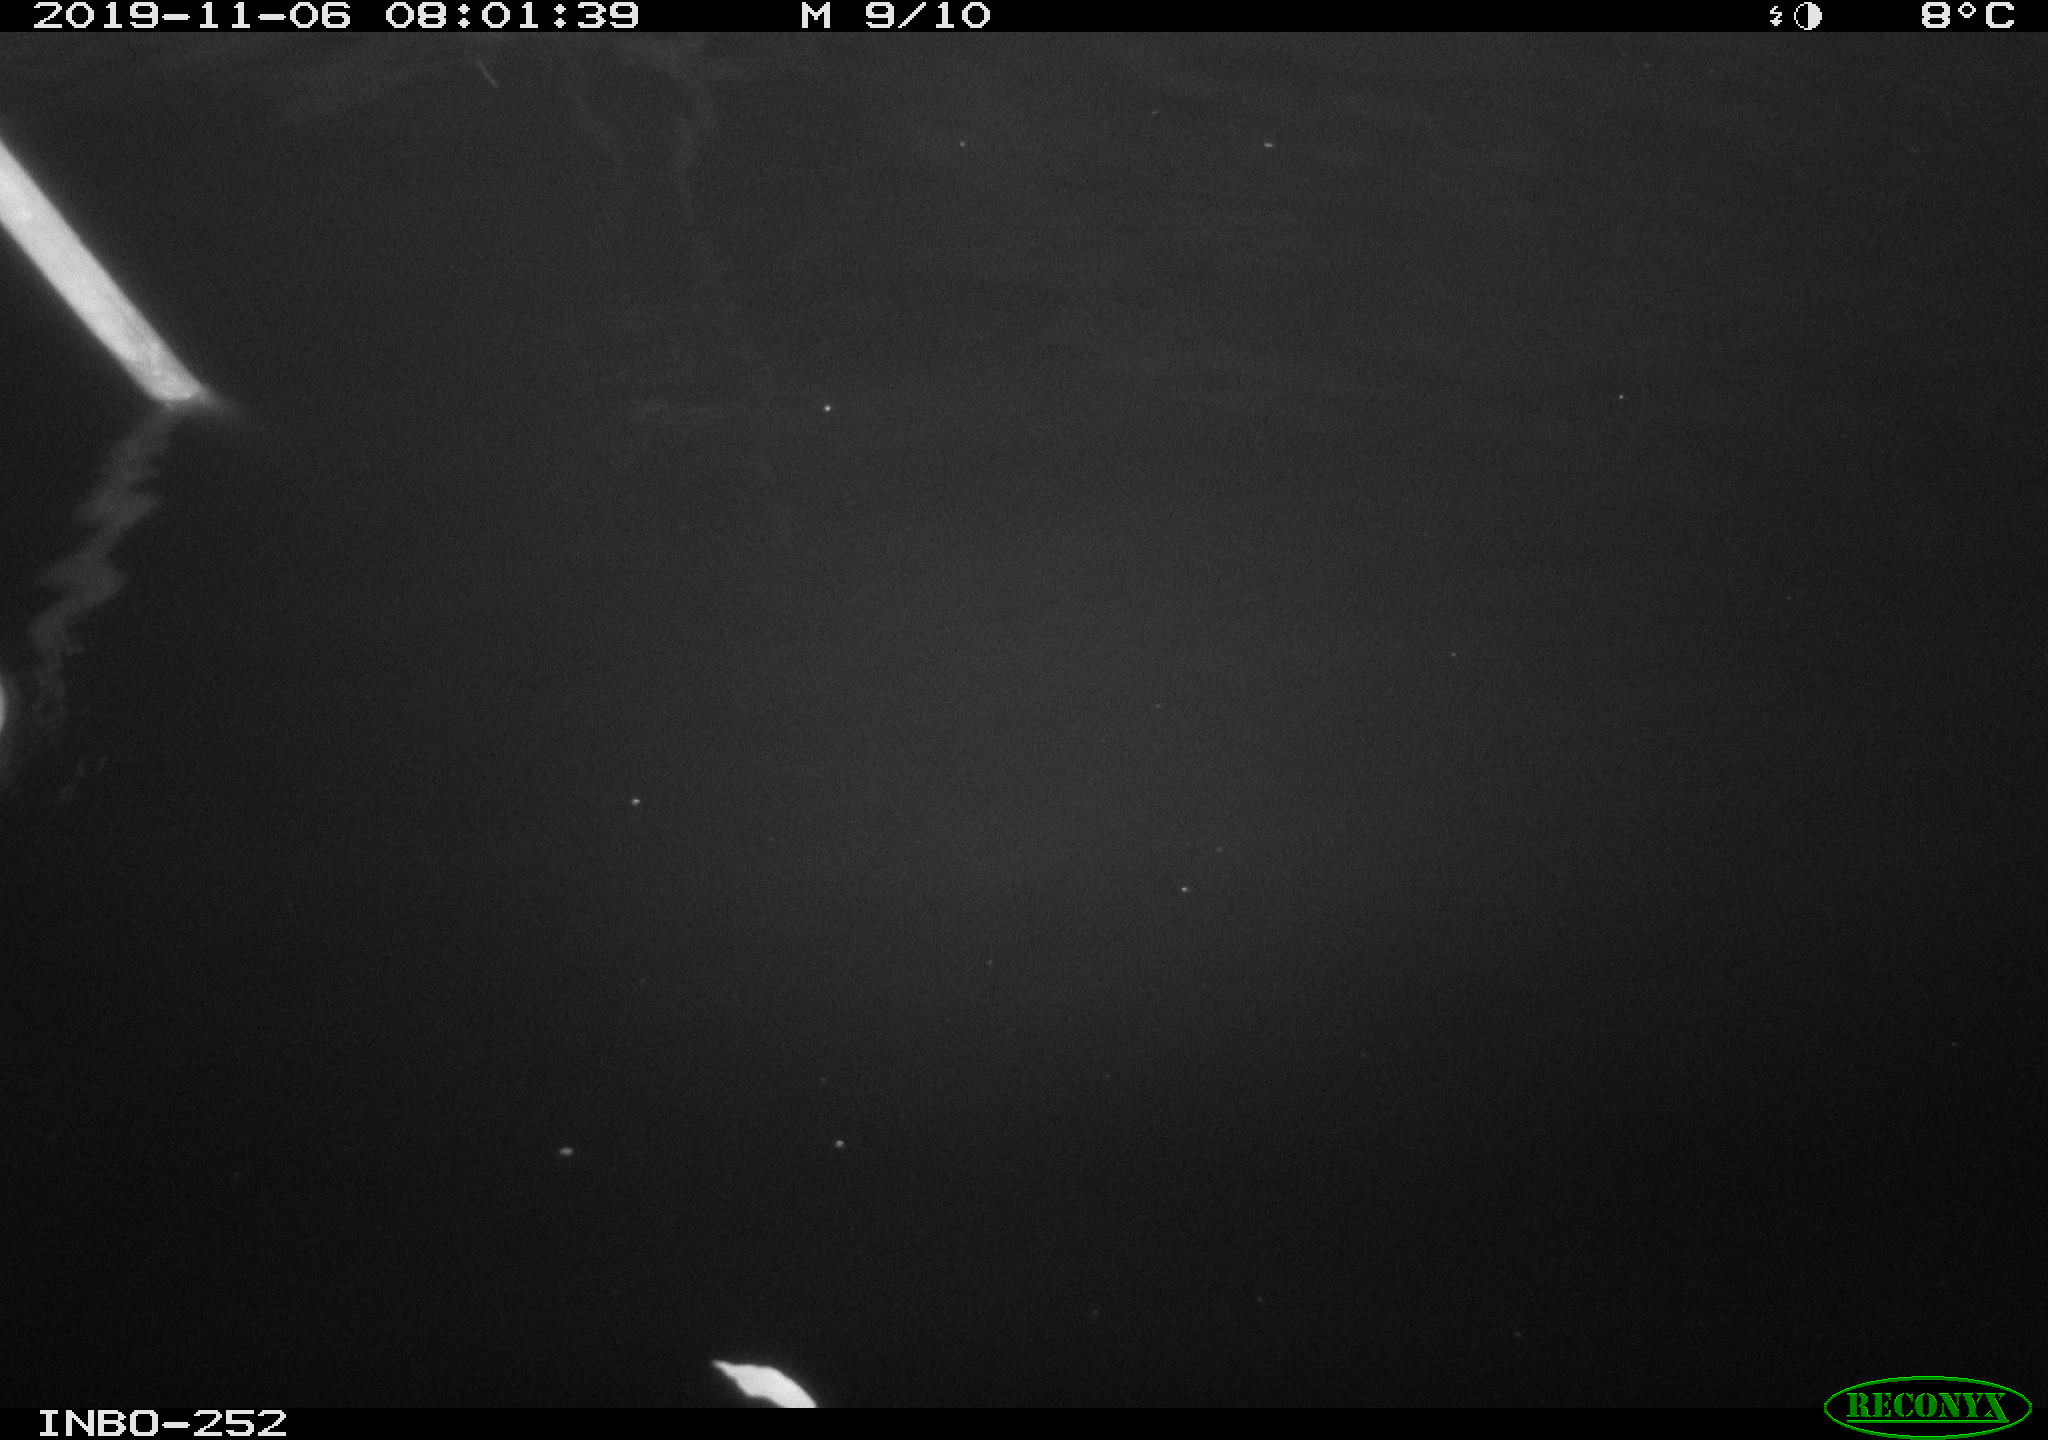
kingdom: Animalia
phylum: Chordata
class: Aves
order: Anseriformes
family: Anatidae
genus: Anas
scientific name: Anas platyrhynchos
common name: Mallard
